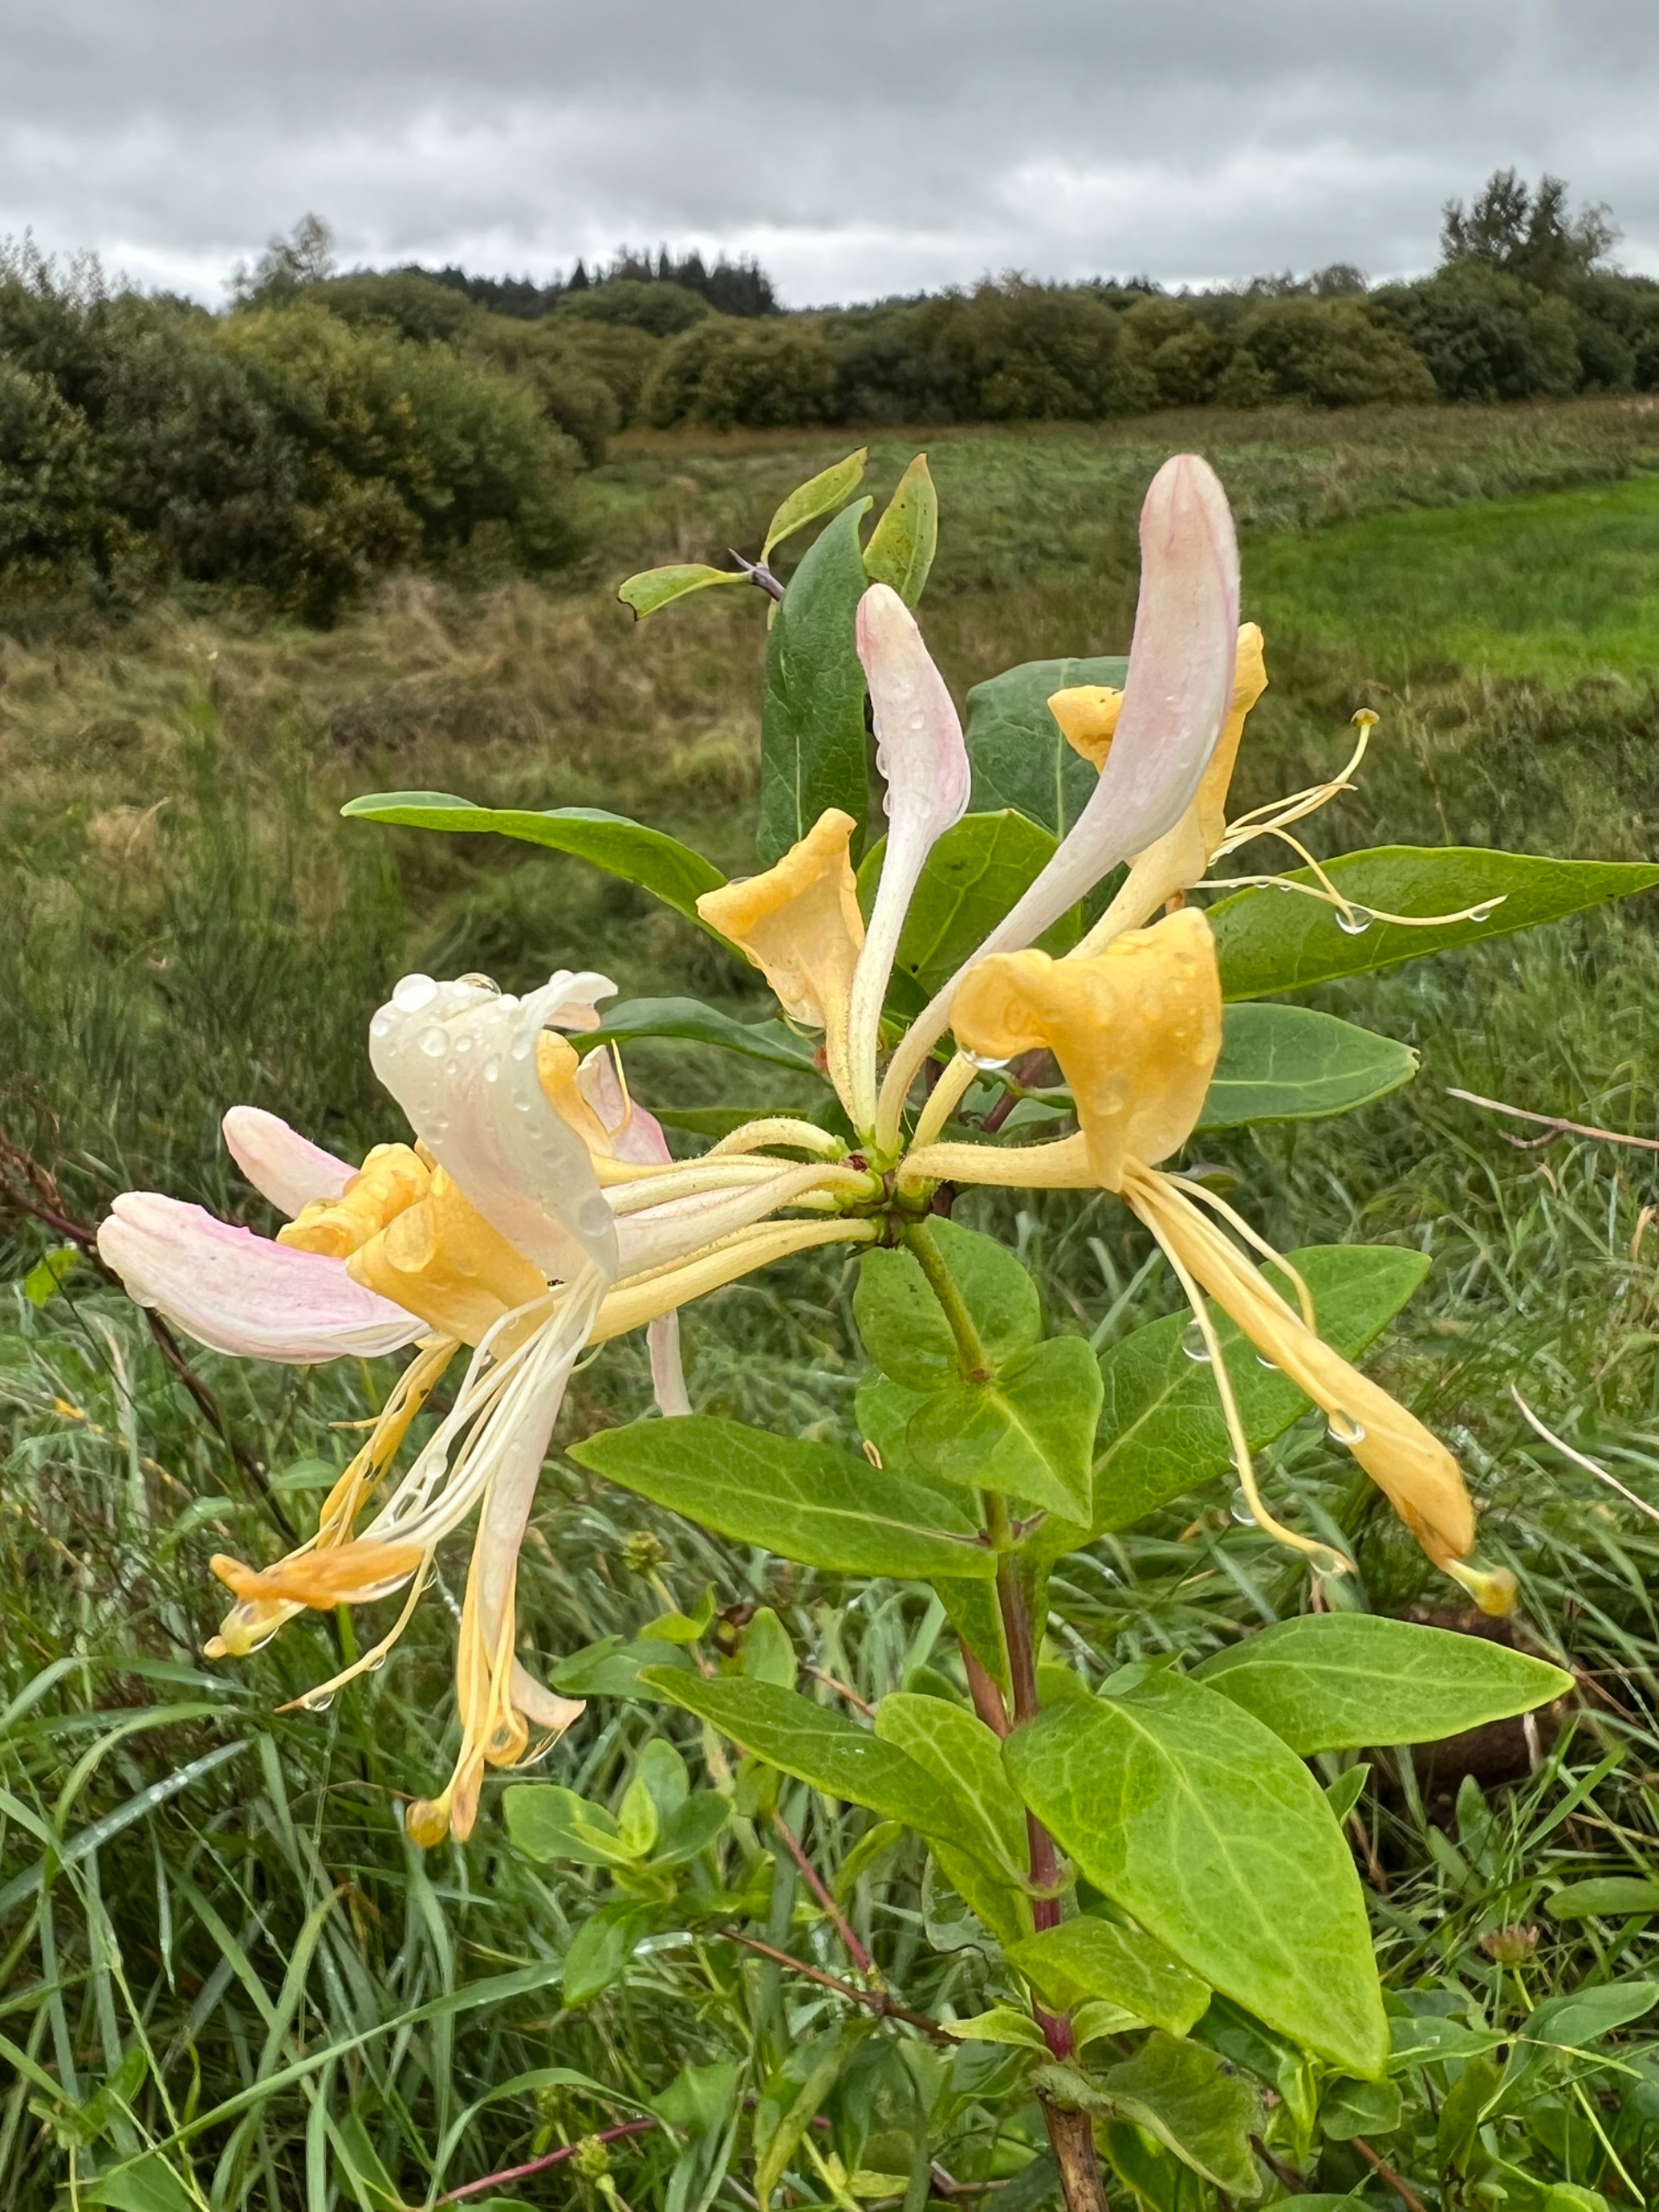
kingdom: Plantae
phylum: Tracheophyta
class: Magnoliopsida
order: Dipsacales
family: Caprifoliaceae
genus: Lonicera
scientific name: Lonicera periclymenum
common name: Almindelig gedeblad
